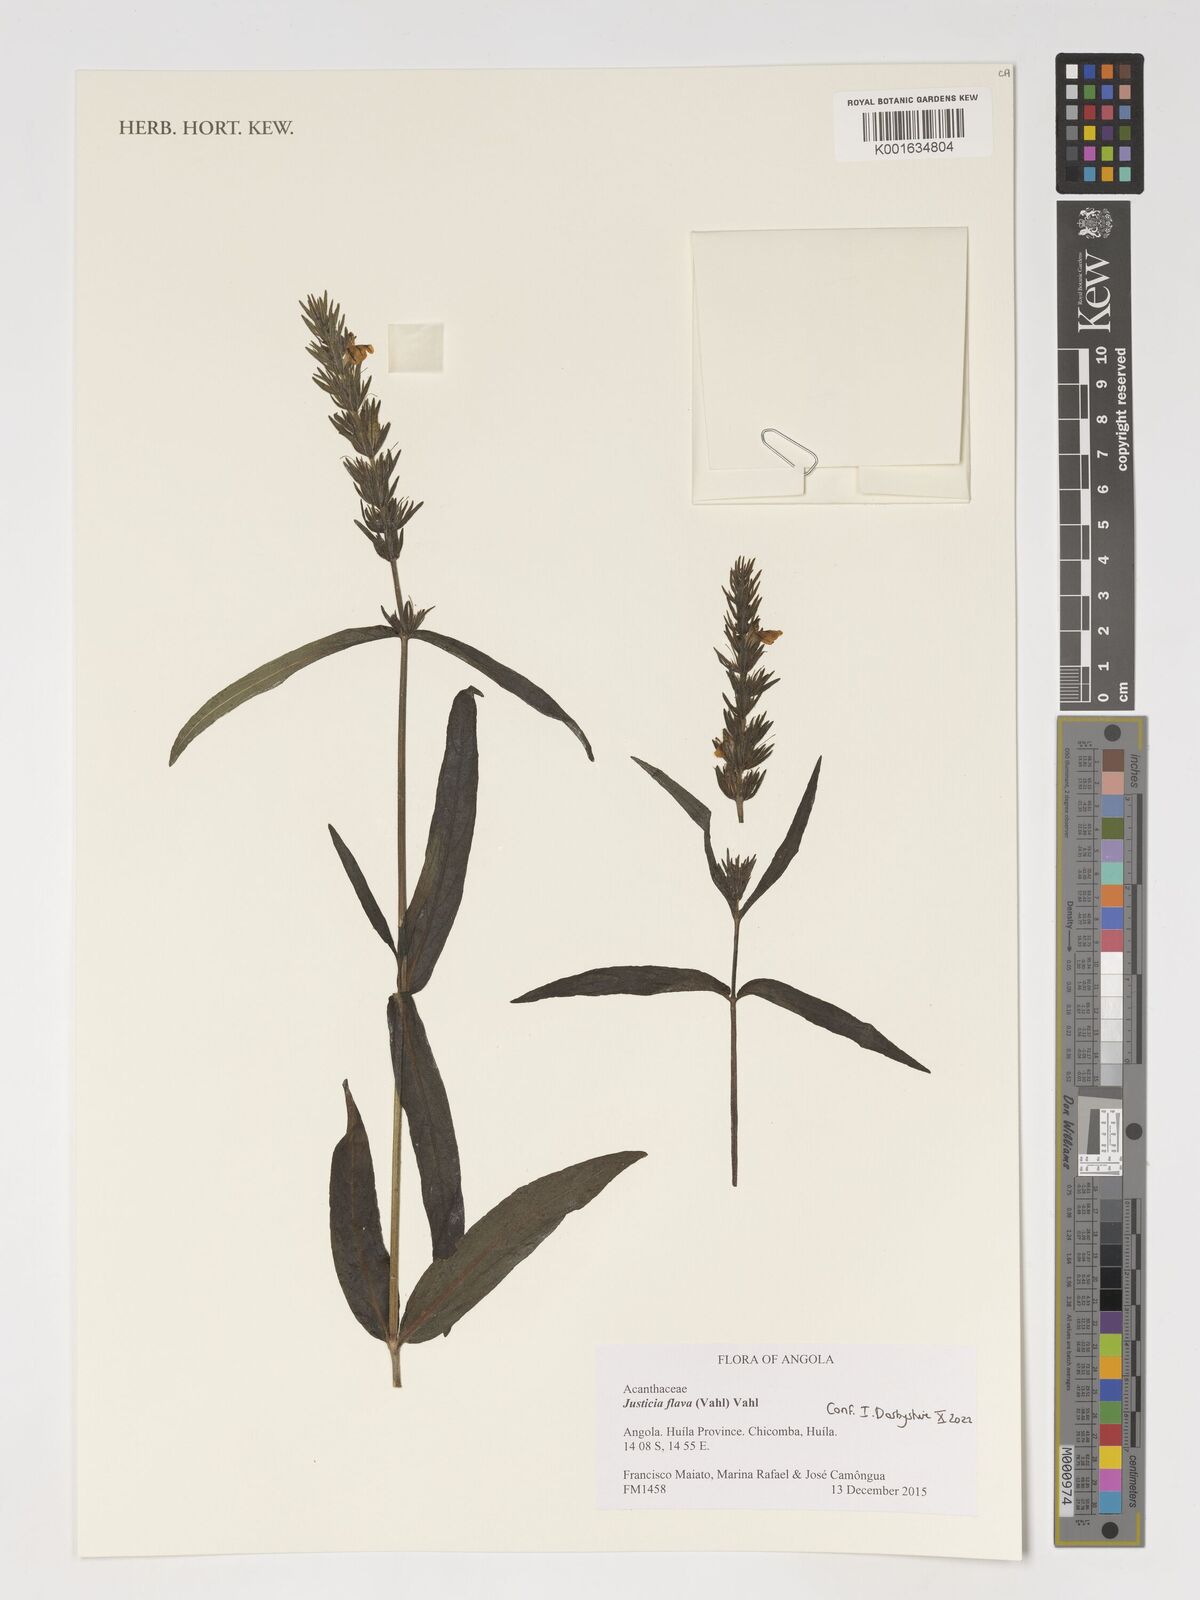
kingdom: Plantae
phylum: Tracheophyta
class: Magnoliopsida
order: Lamiales
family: Acanthaceae
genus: Justicia
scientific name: Justicia flava
